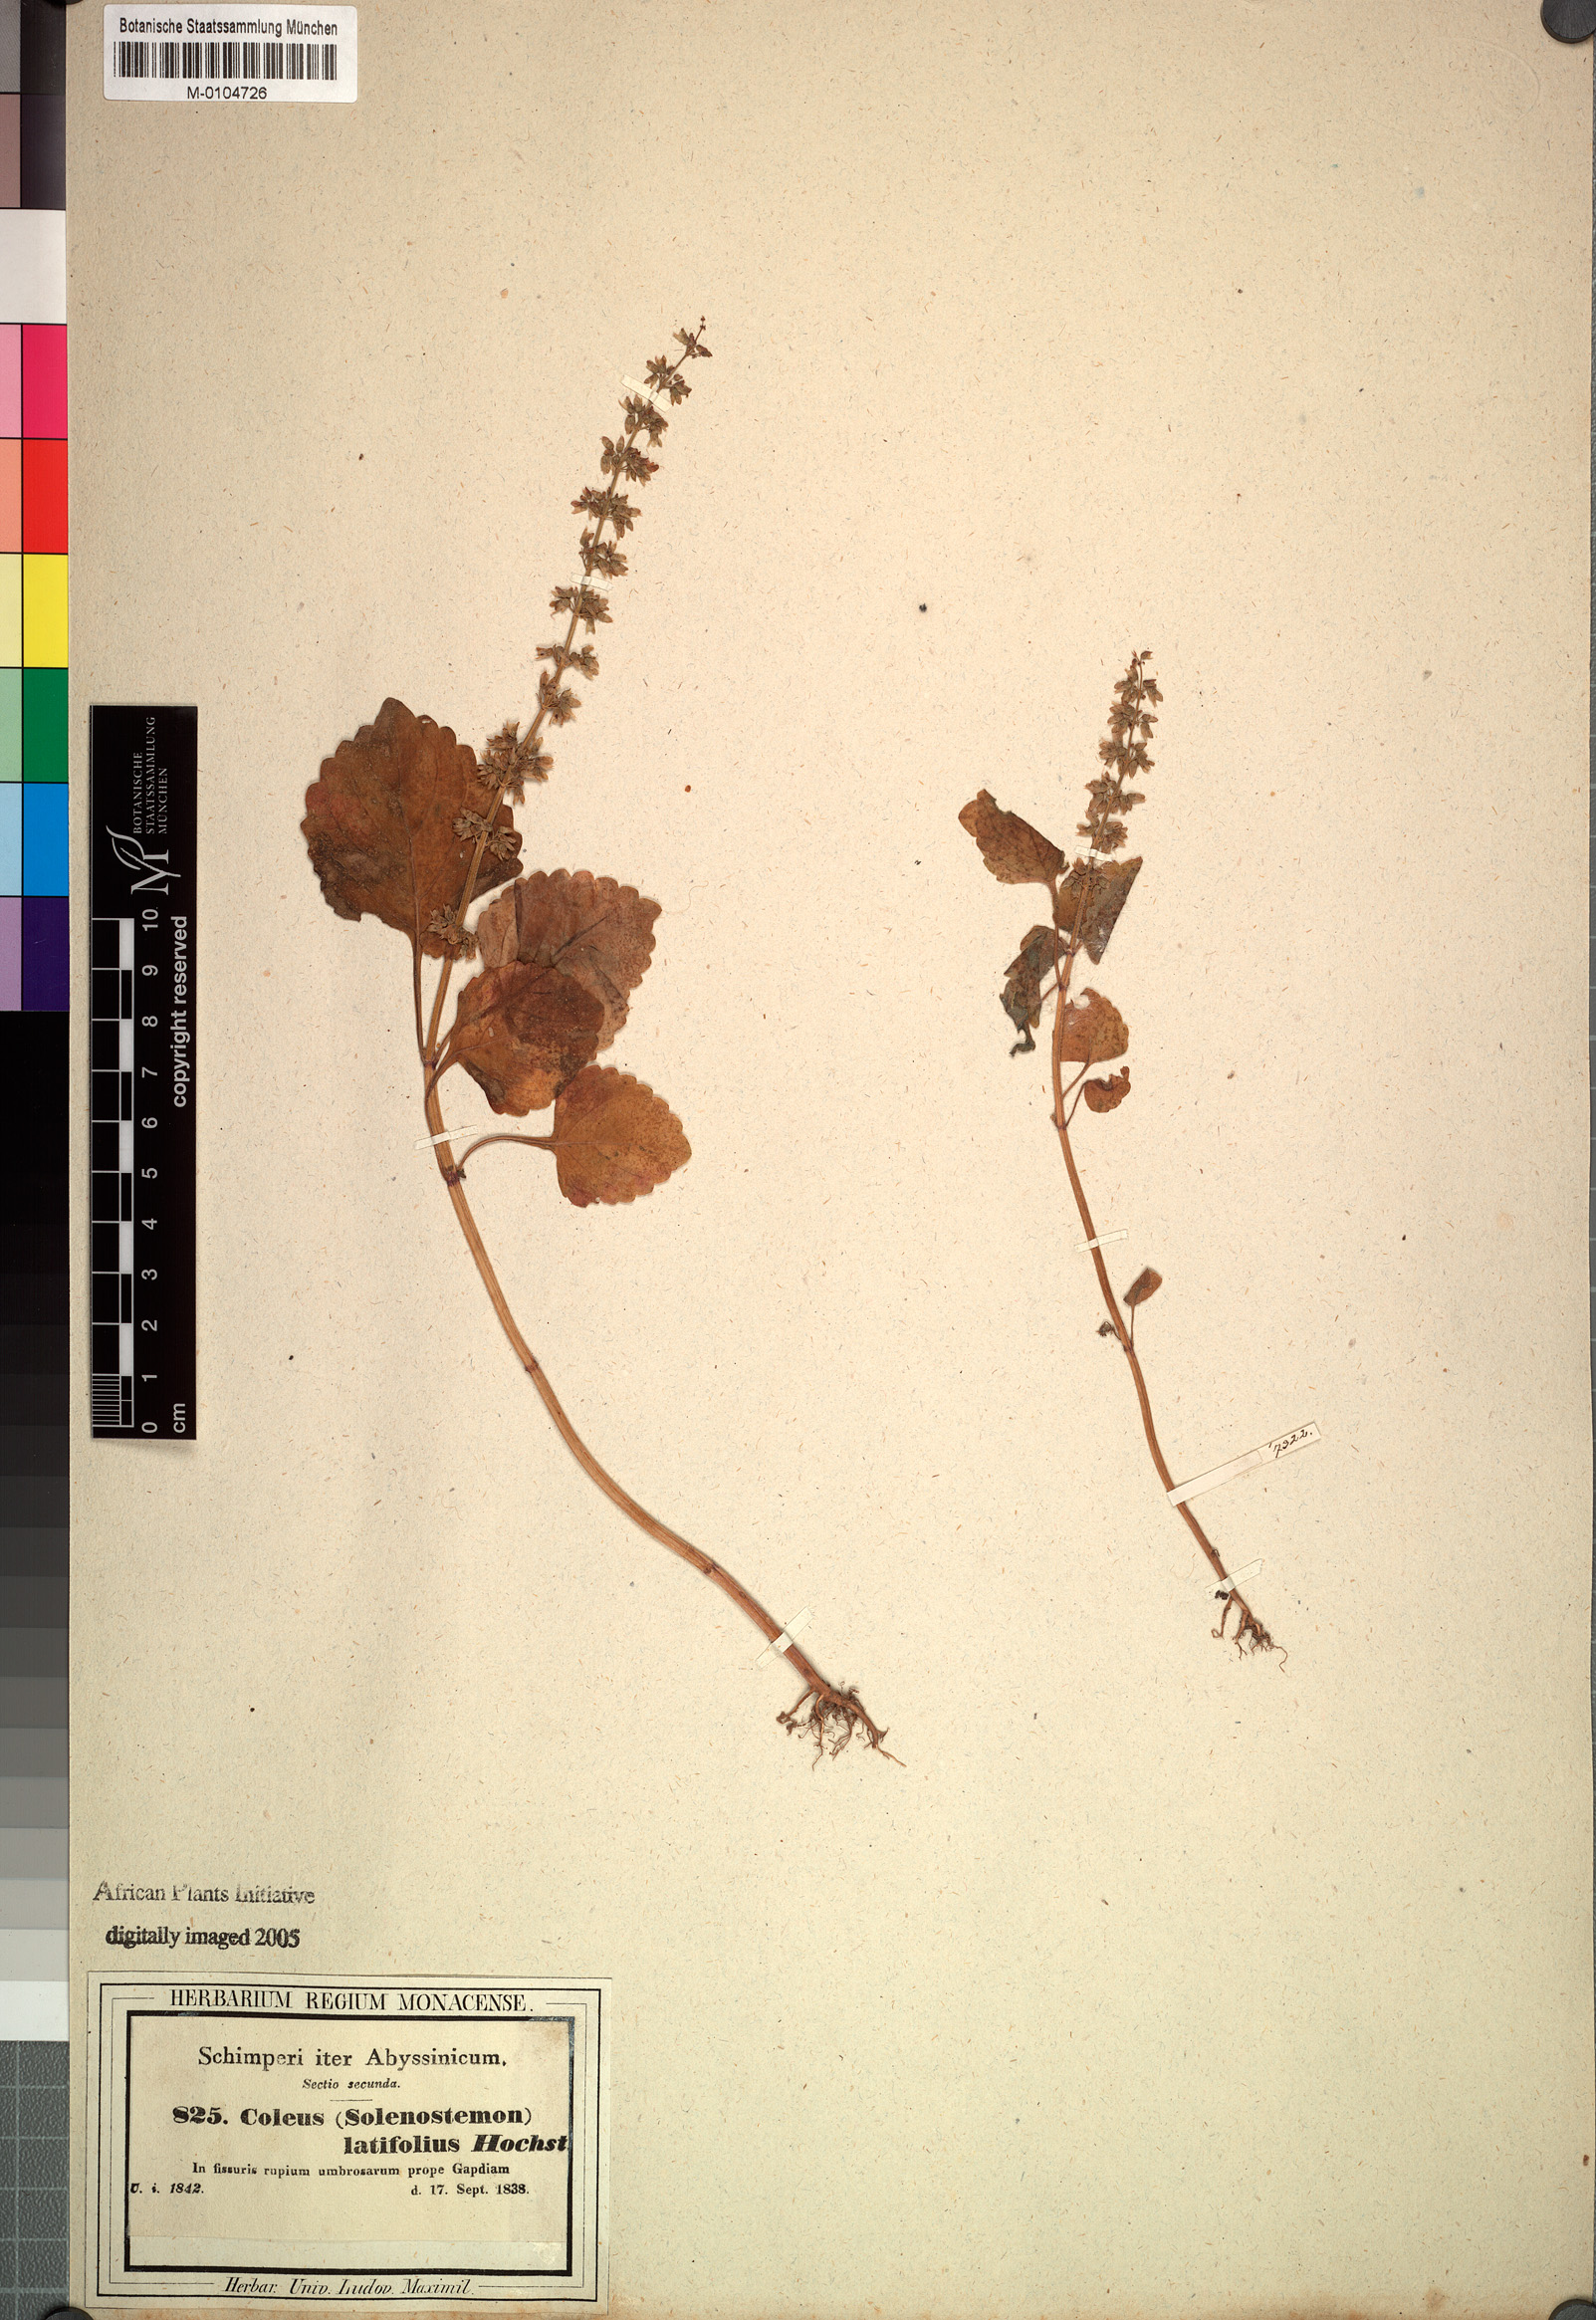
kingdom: Plantae
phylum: Tracheophyta
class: Magnoliopsida
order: Lamiales
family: Lamiaceae
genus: Coleus
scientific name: Coleus bojeri
